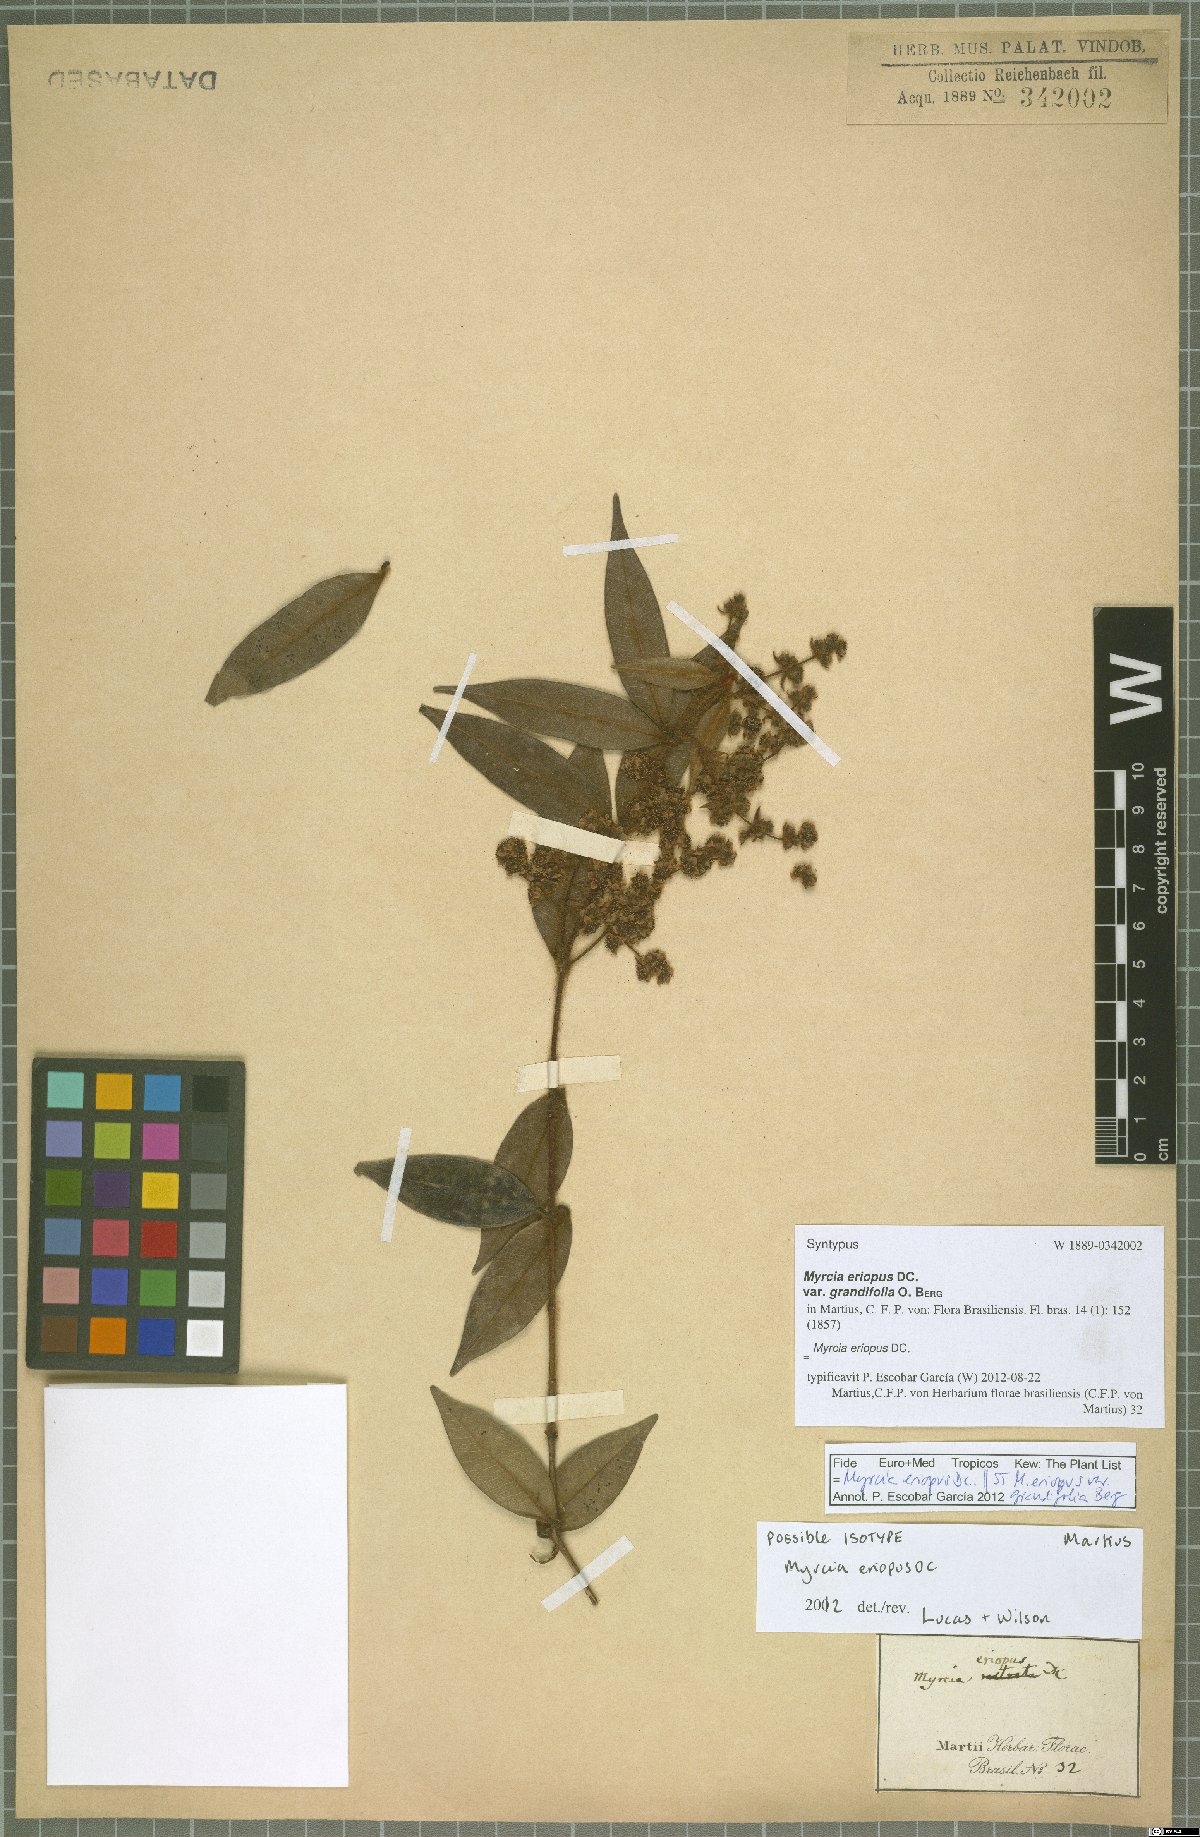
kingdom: Plantae
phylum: Tracheophyta
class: Magnoliopsida
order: Myrtales
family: Myrtaceae
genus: Myrcia
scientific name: Myrcia eriopus
